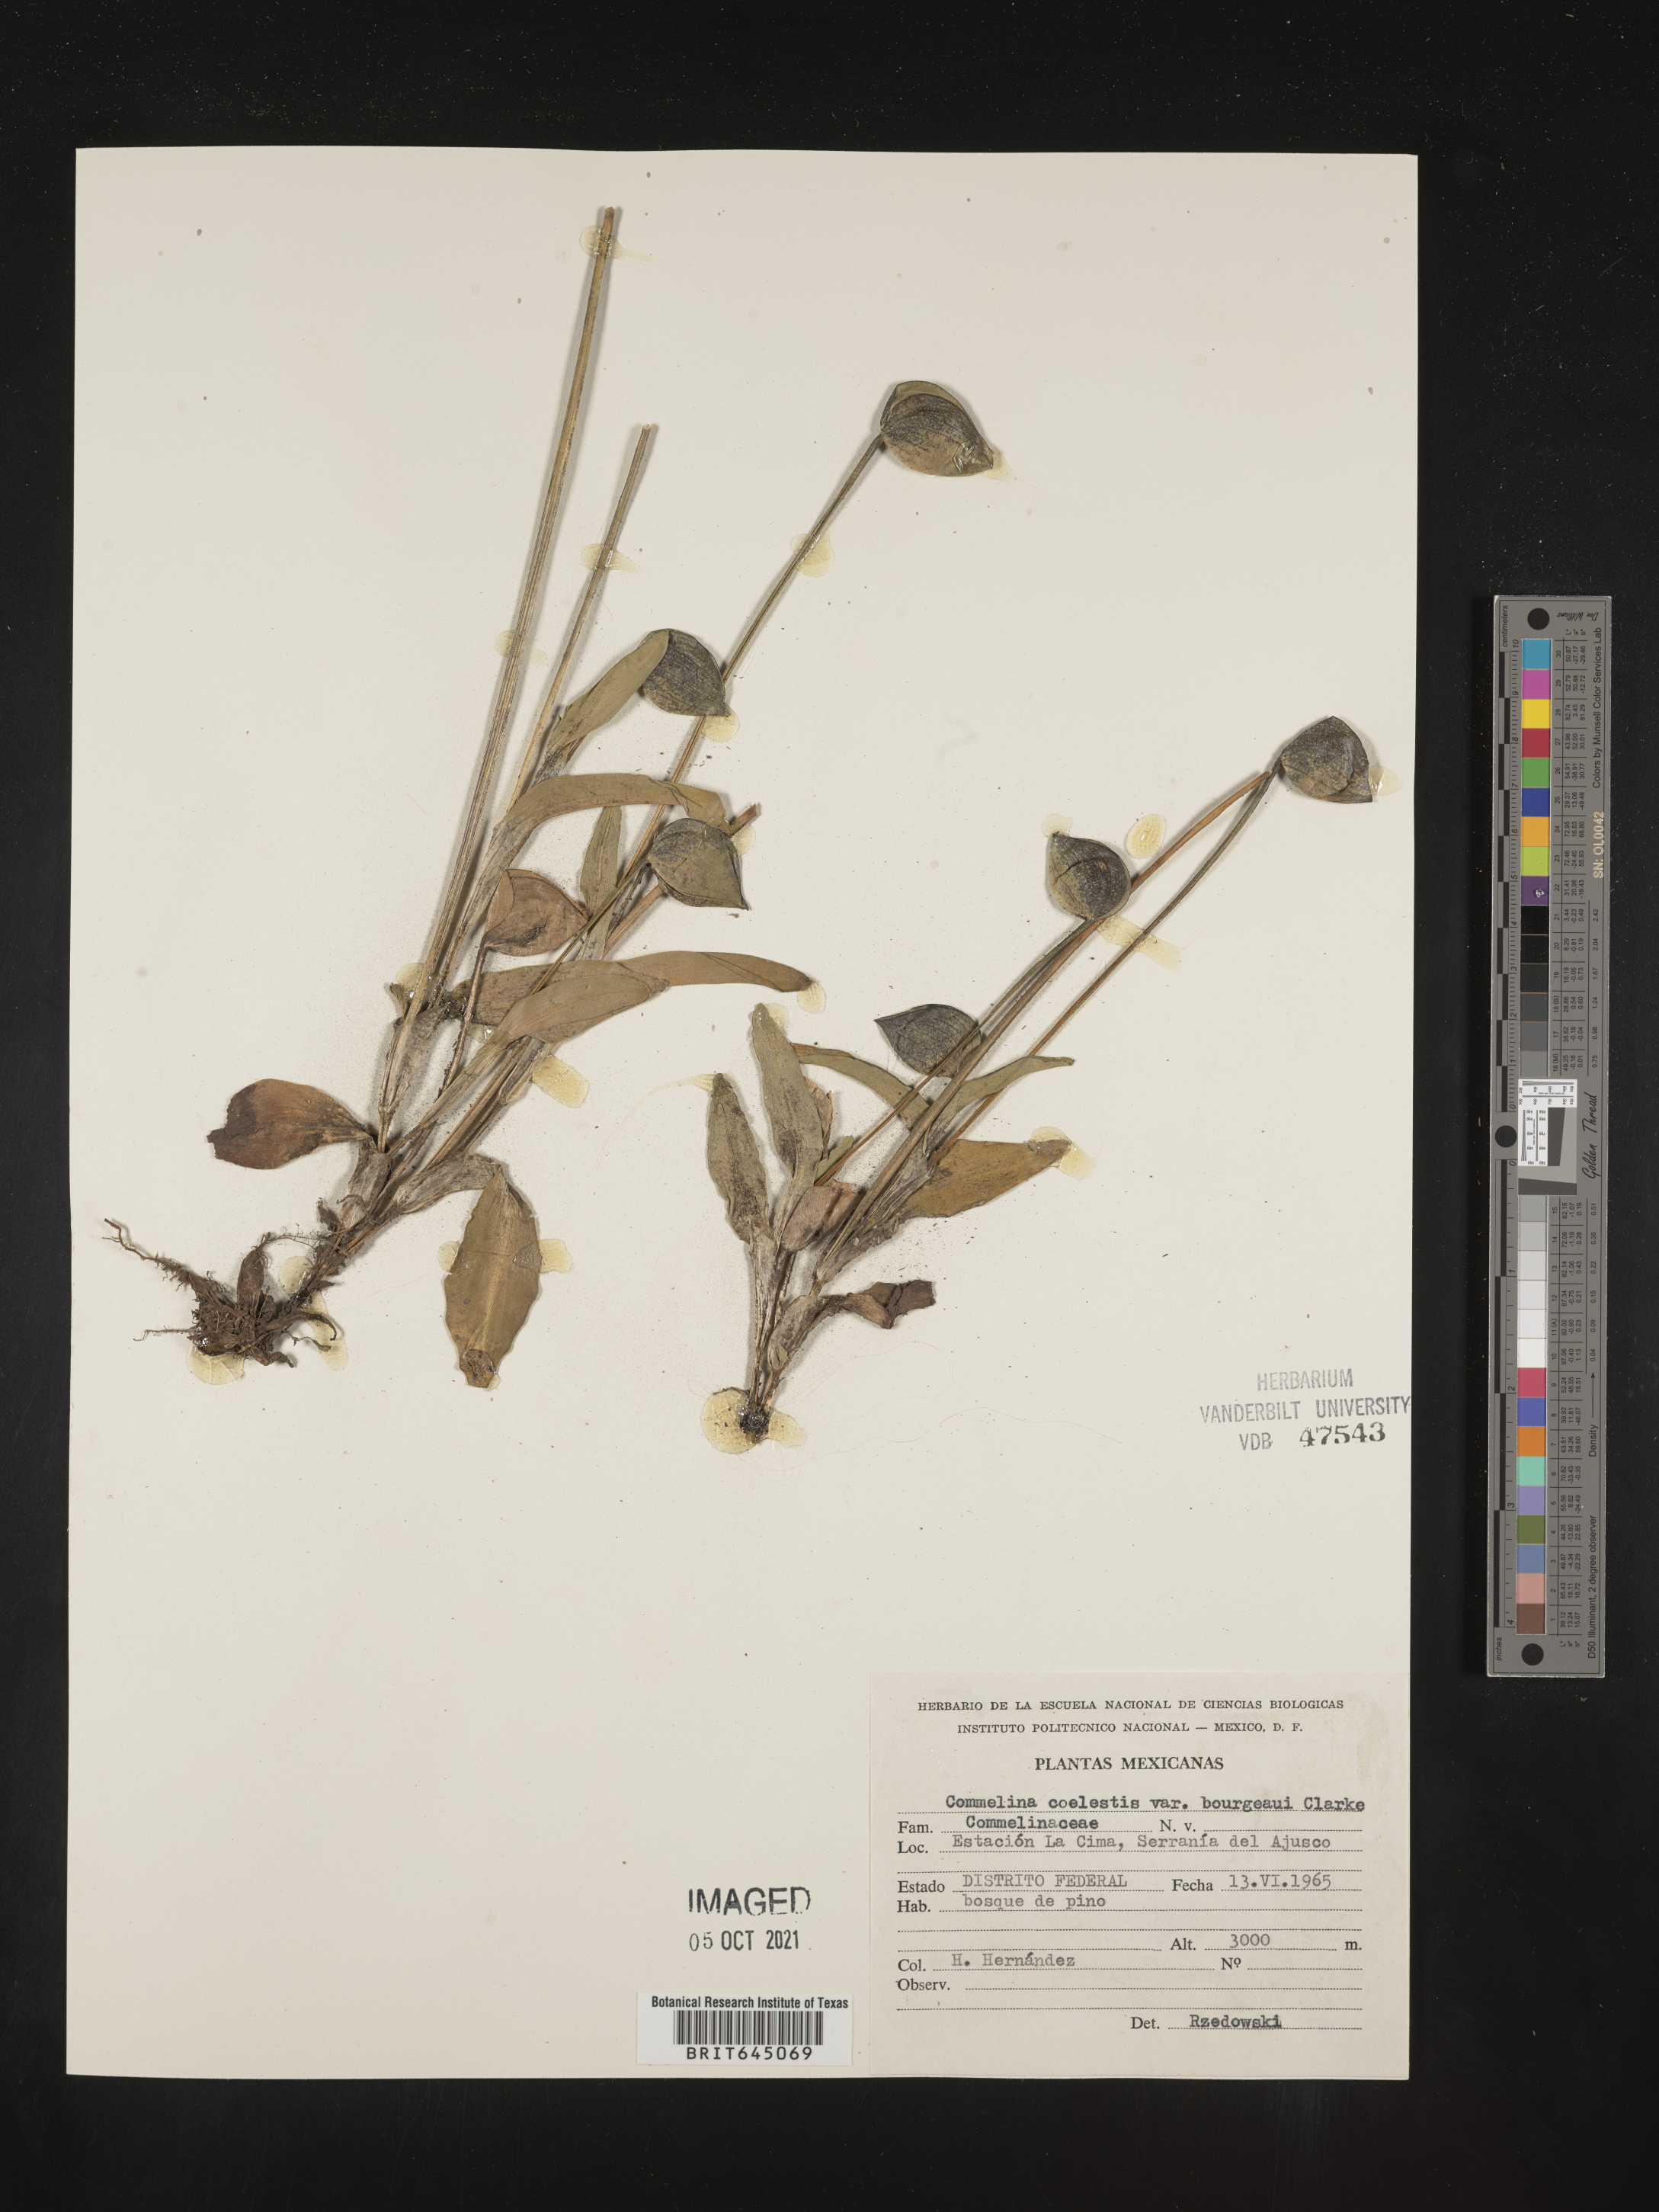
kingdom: Plantae
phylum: Tracheophyta
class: Liliopsida
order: Commelinales
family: Commelinaceae
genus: Commelina
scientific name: Commelina
